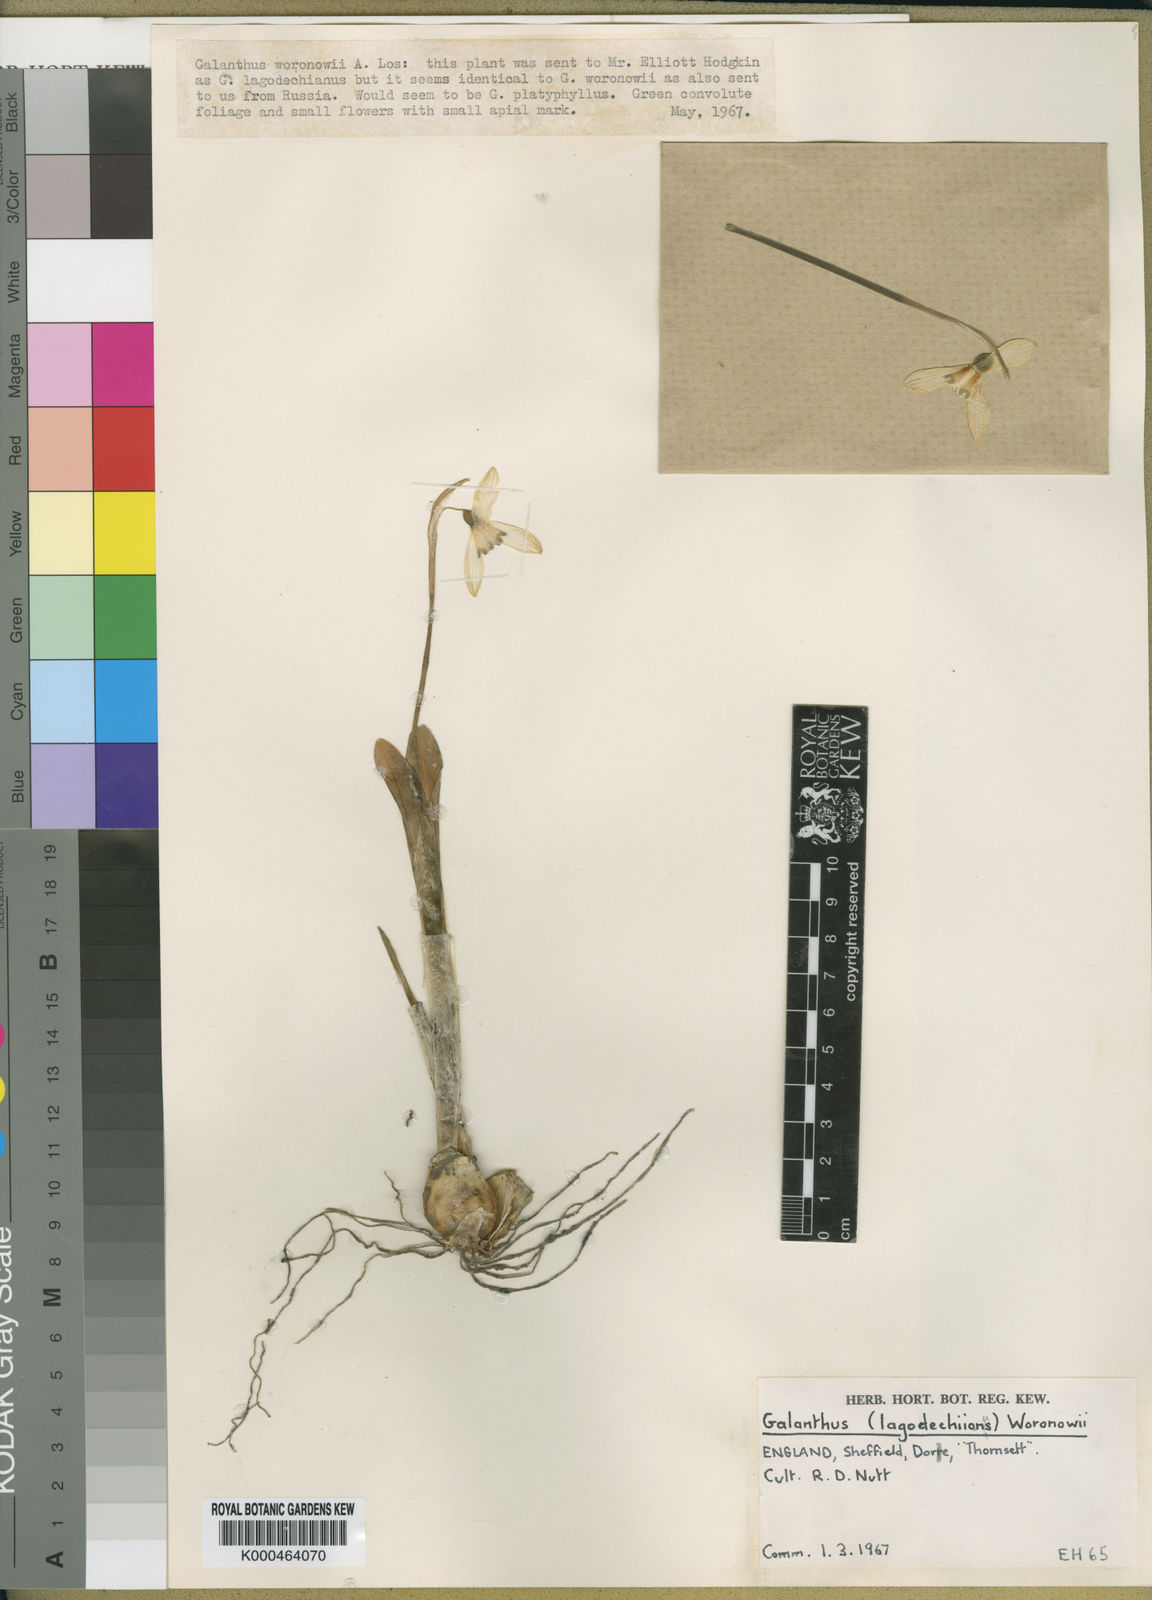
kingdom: Plantae
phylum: Tracheophyta
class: Liliopsida
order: Asparagales
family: Amaryllidaceae
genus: Galanthus
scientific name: Galanthus woronowii
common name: Green snowdrop
